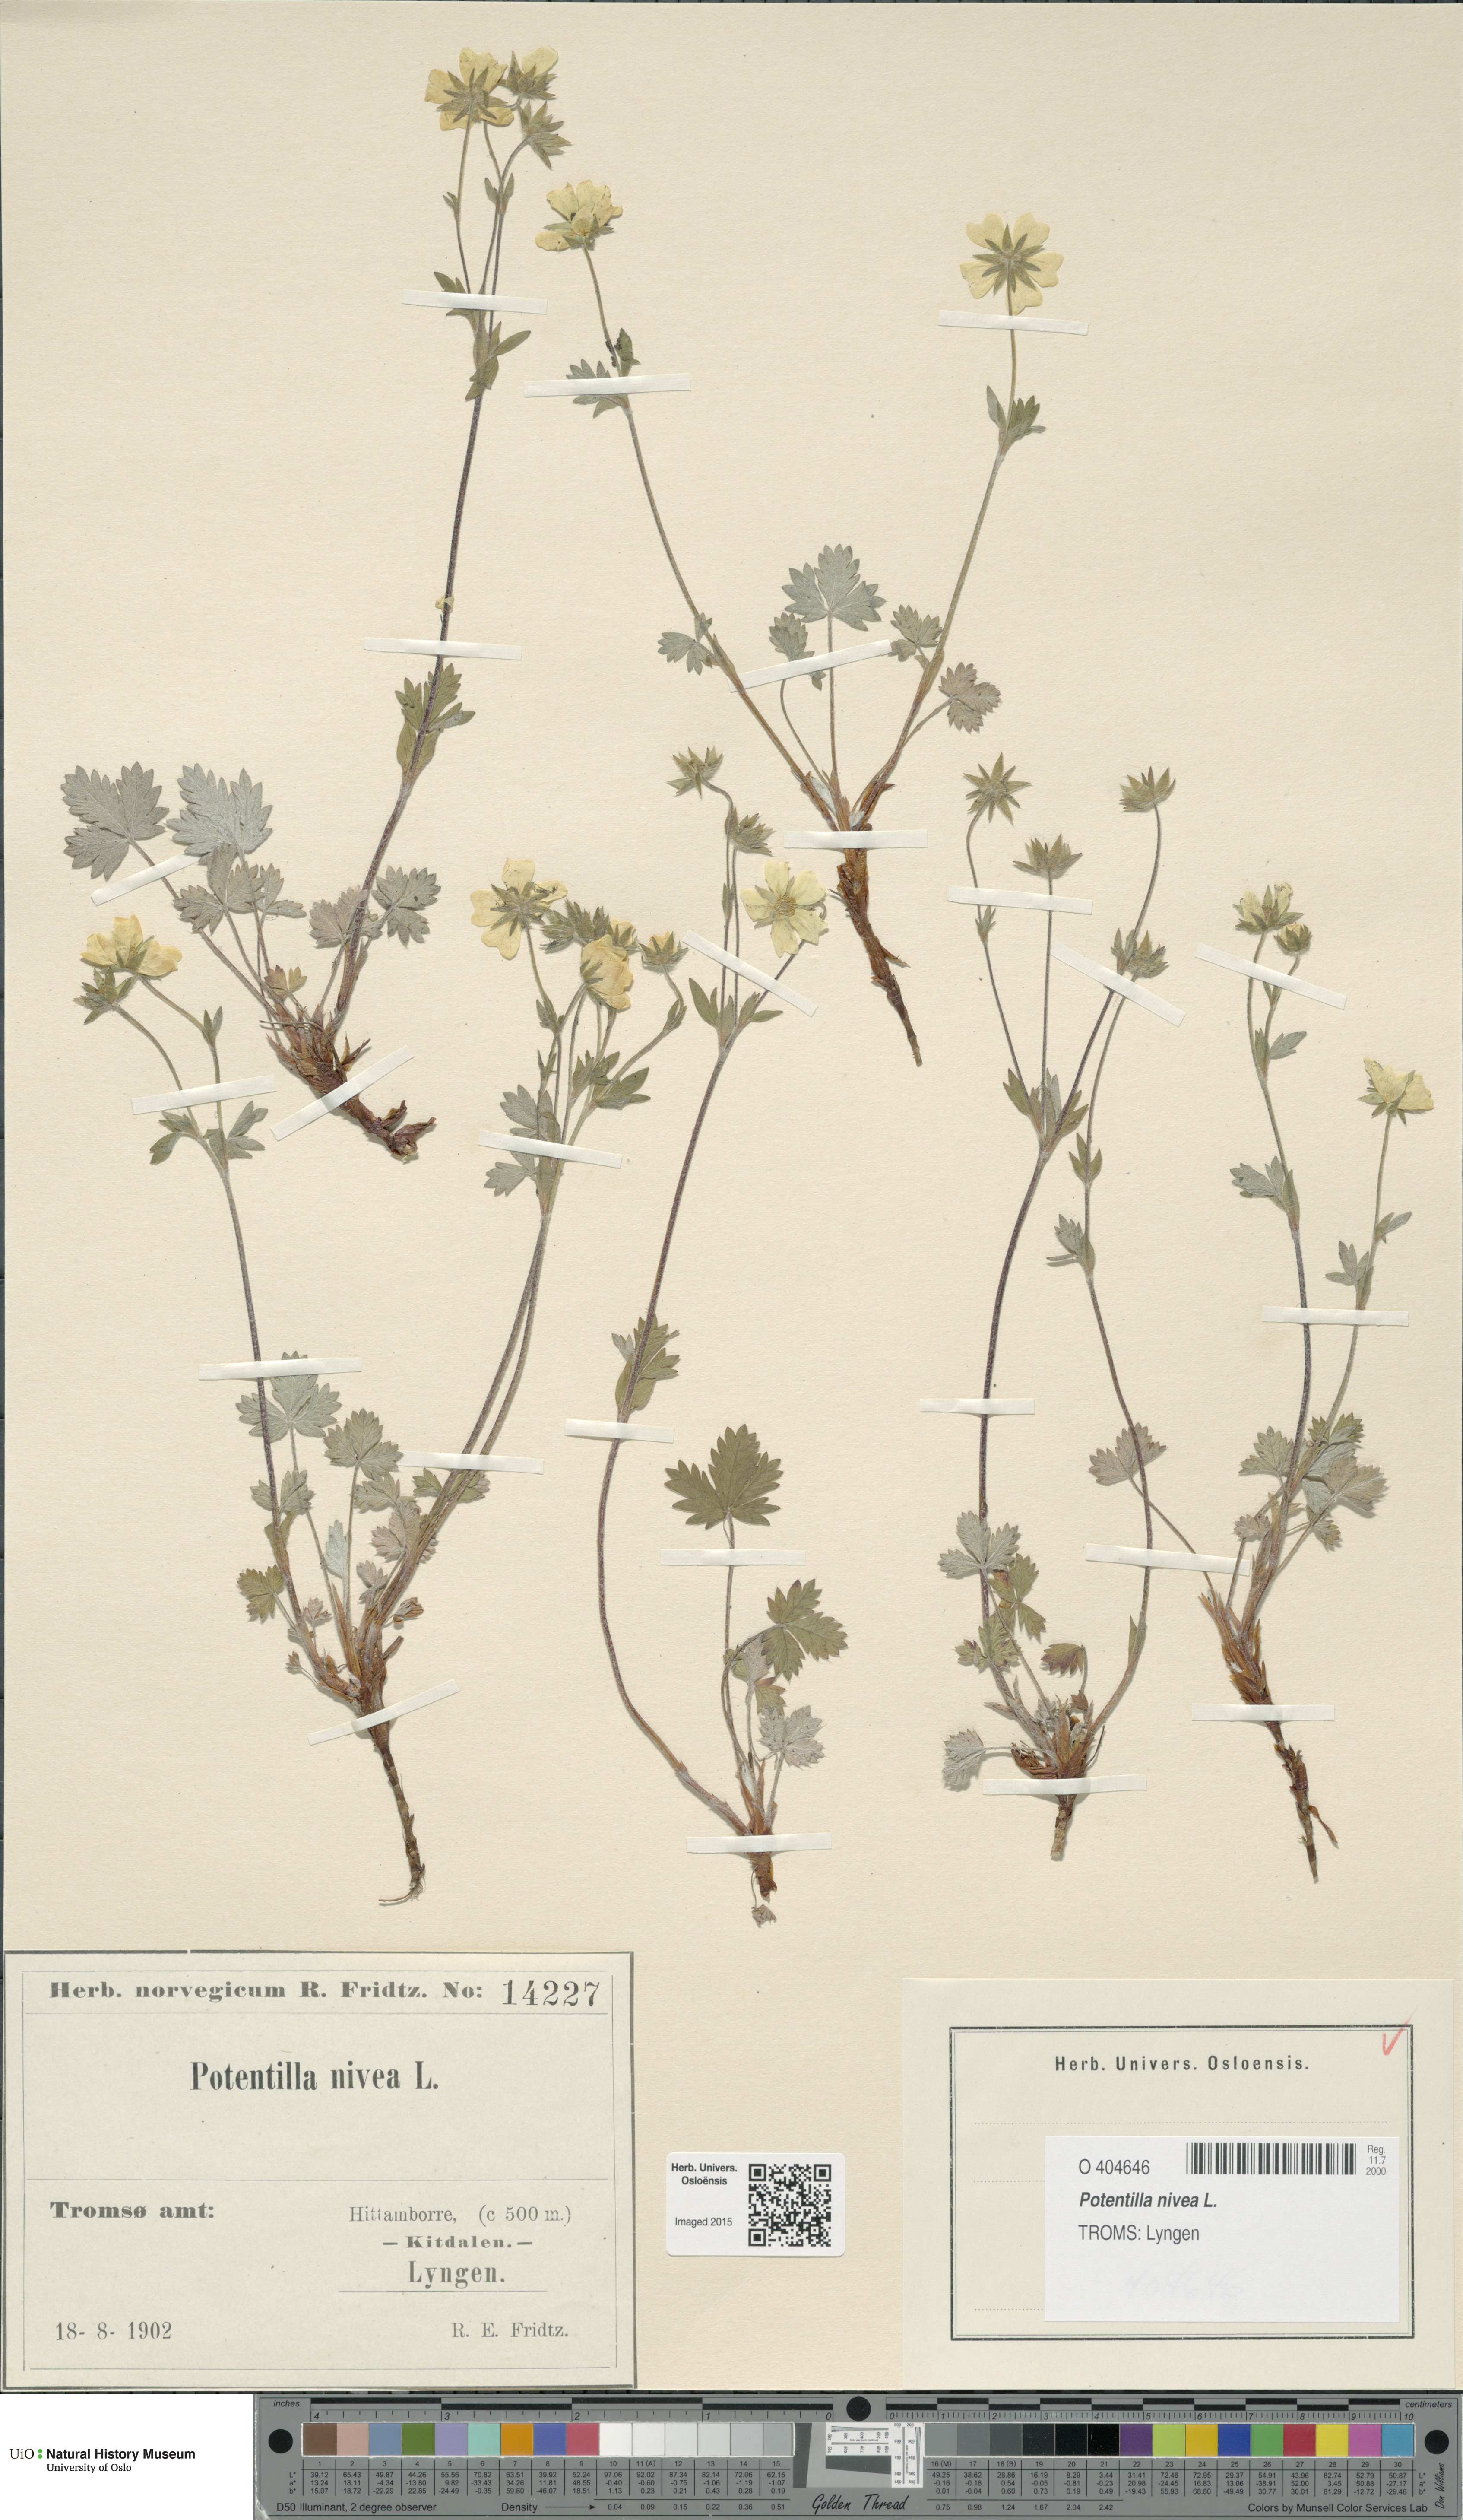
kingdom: Plantae
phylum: Tracheophyta
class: Magnoliopsida
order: Rosales
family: Rosaceae
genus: Potentilla
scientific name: Potentilla arenosa
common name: Bluff cinquefoil
